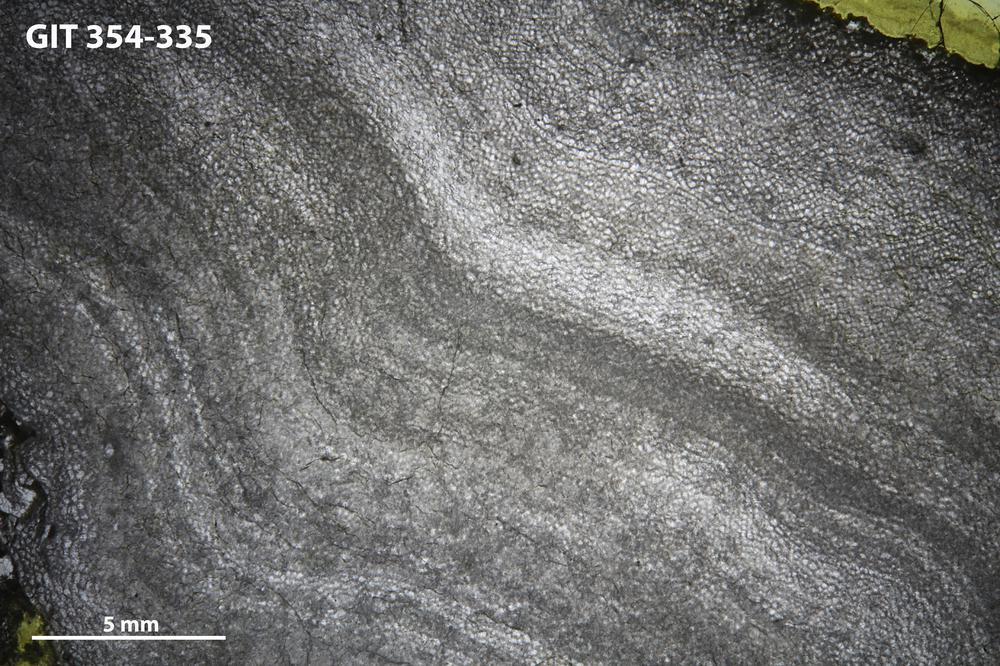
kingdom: Animalia
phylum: Porifera
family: Ecclimadictyidae
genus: Ecclimadictyon
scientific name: Ecclimadictyon macrotuberculatum
